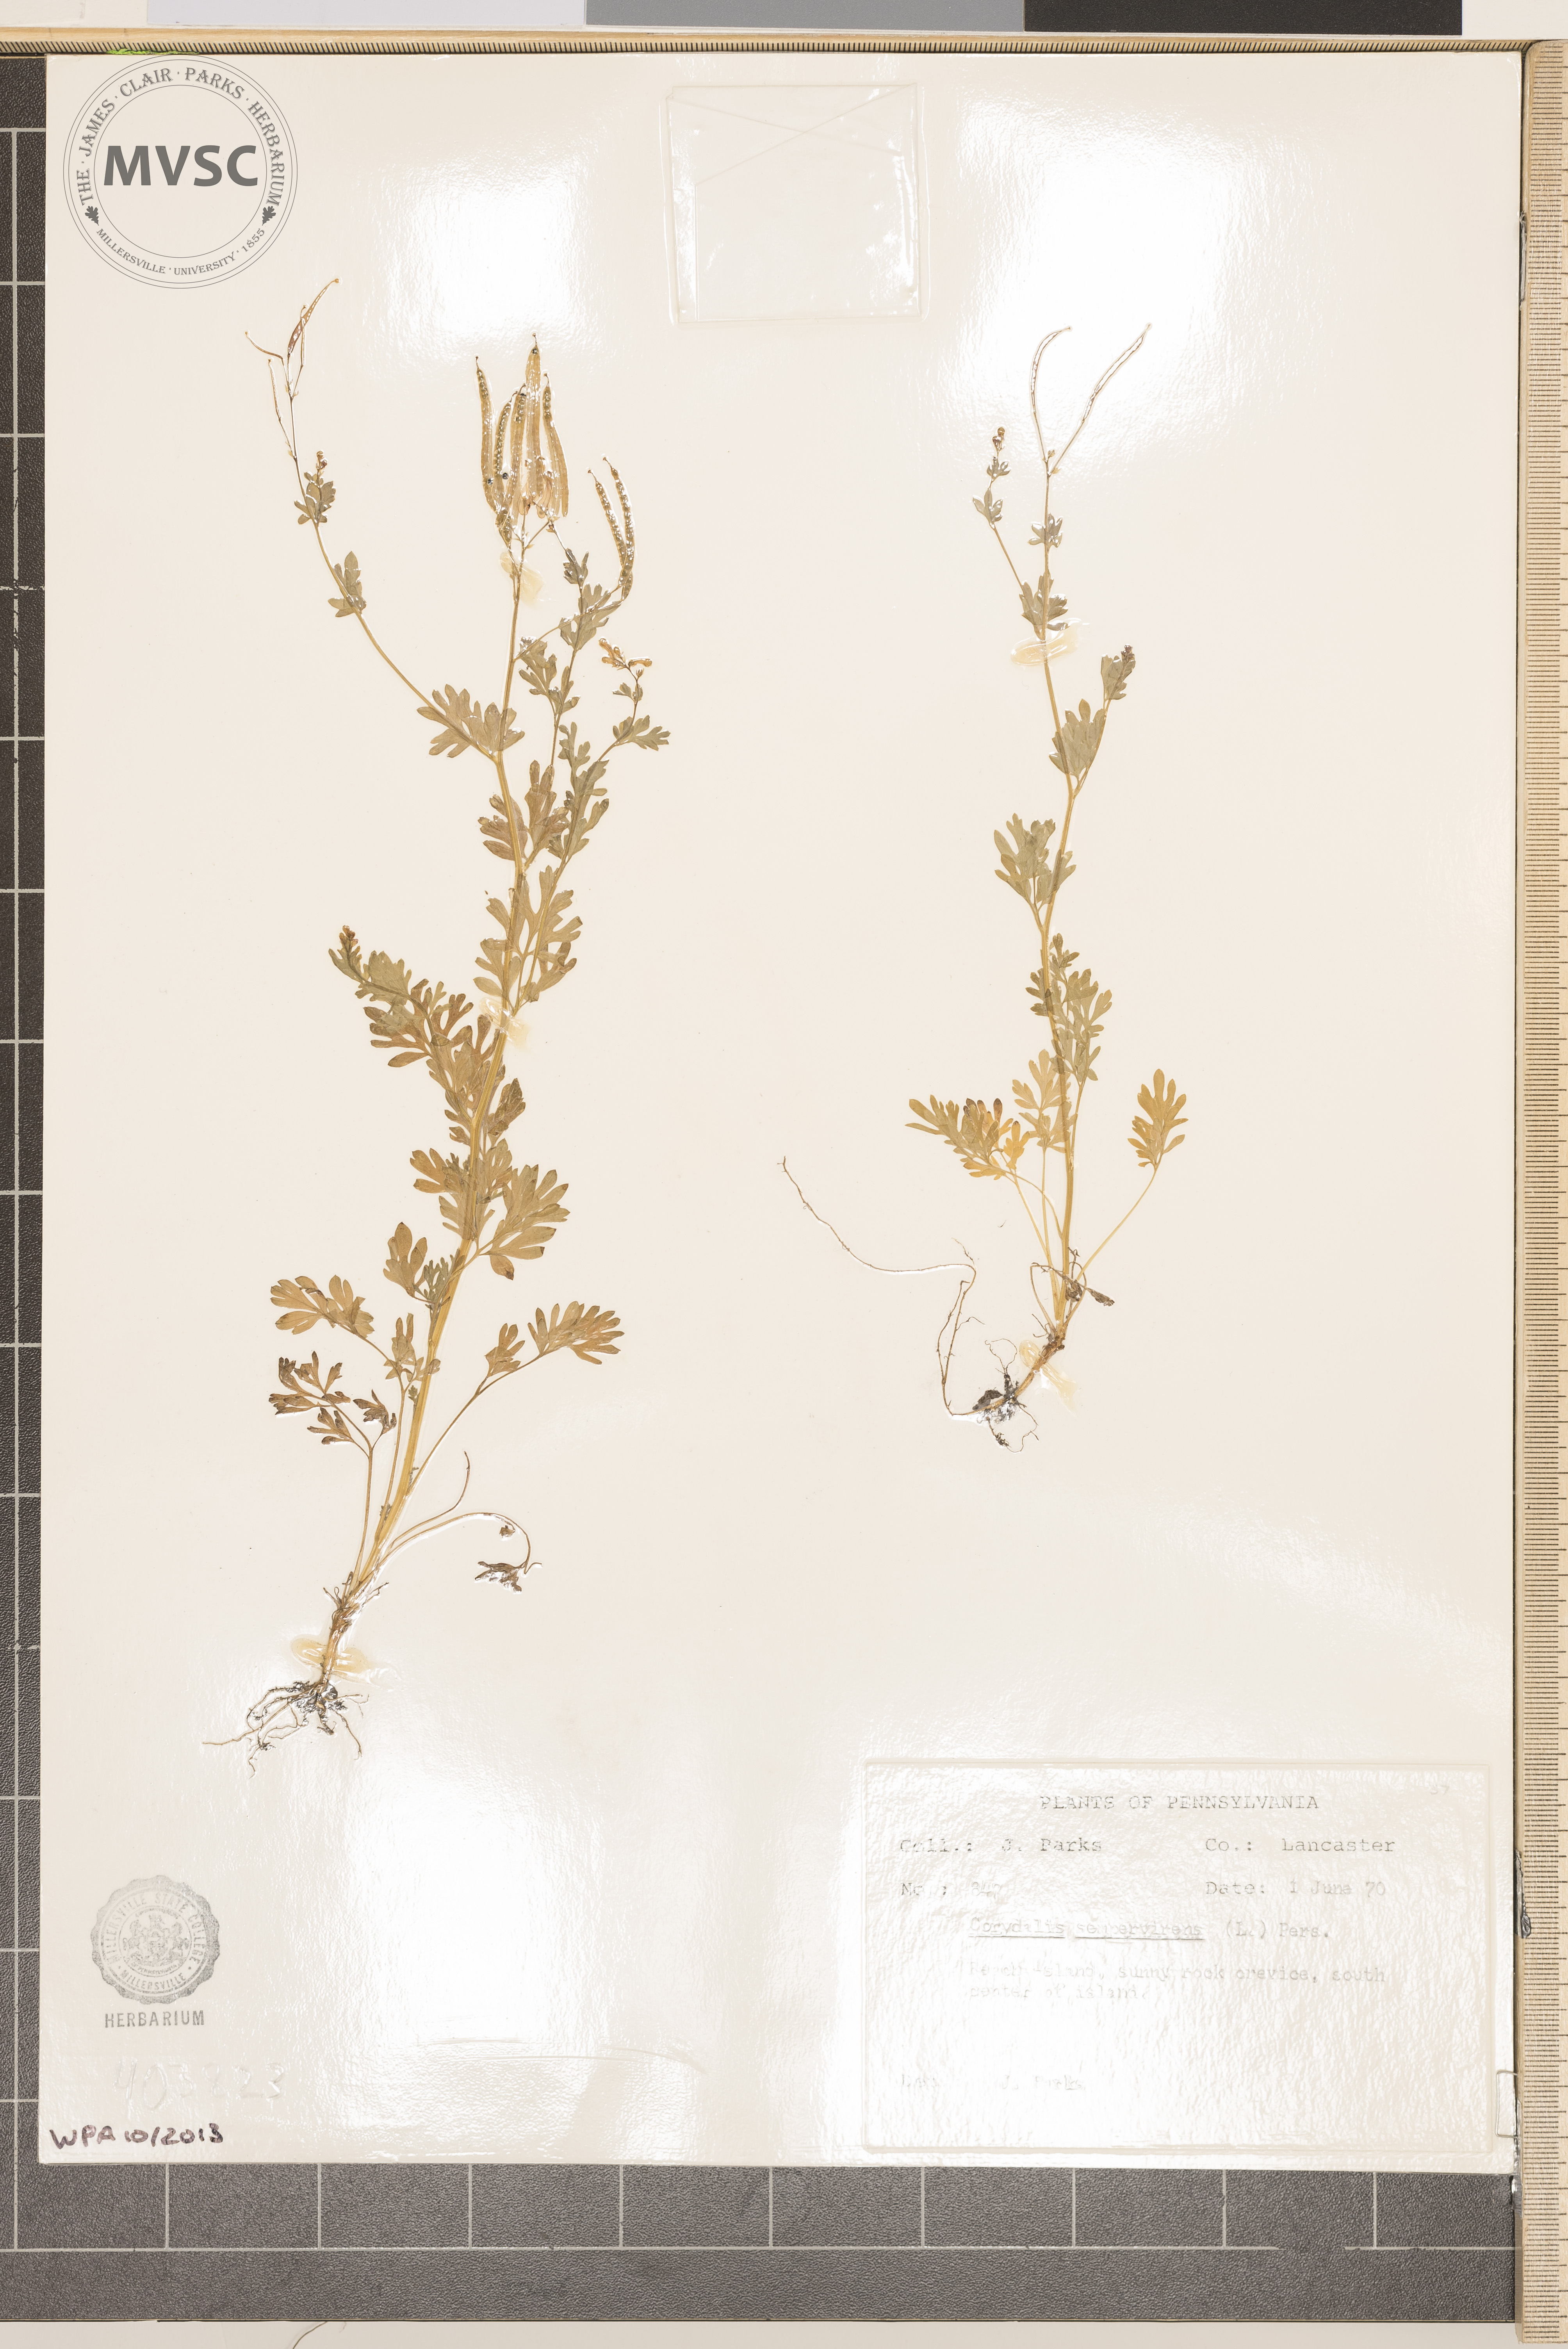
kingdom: Plantae
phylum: Tracheophyta
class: Magnoliopsida
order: Ranunculales
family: Papaveraceae
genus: Capnoides
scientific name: Capnoides sempervirens
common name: Rock harlequin
